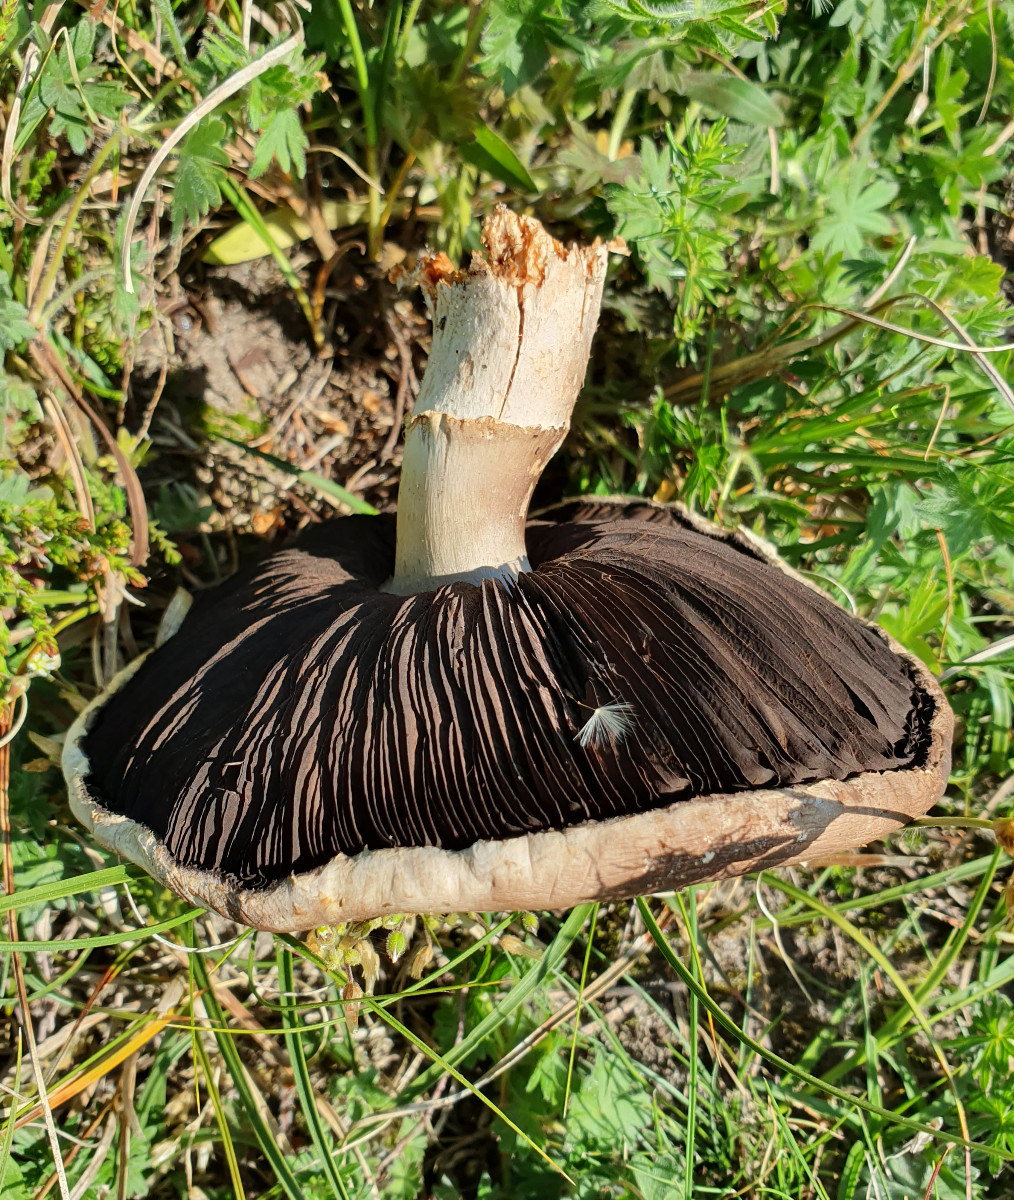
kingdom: Fungi
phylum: Basidiomycota
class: Agaricomycetes
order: Agaricales
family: Agaricaceae
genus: Agaricus
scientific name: Agaricus
